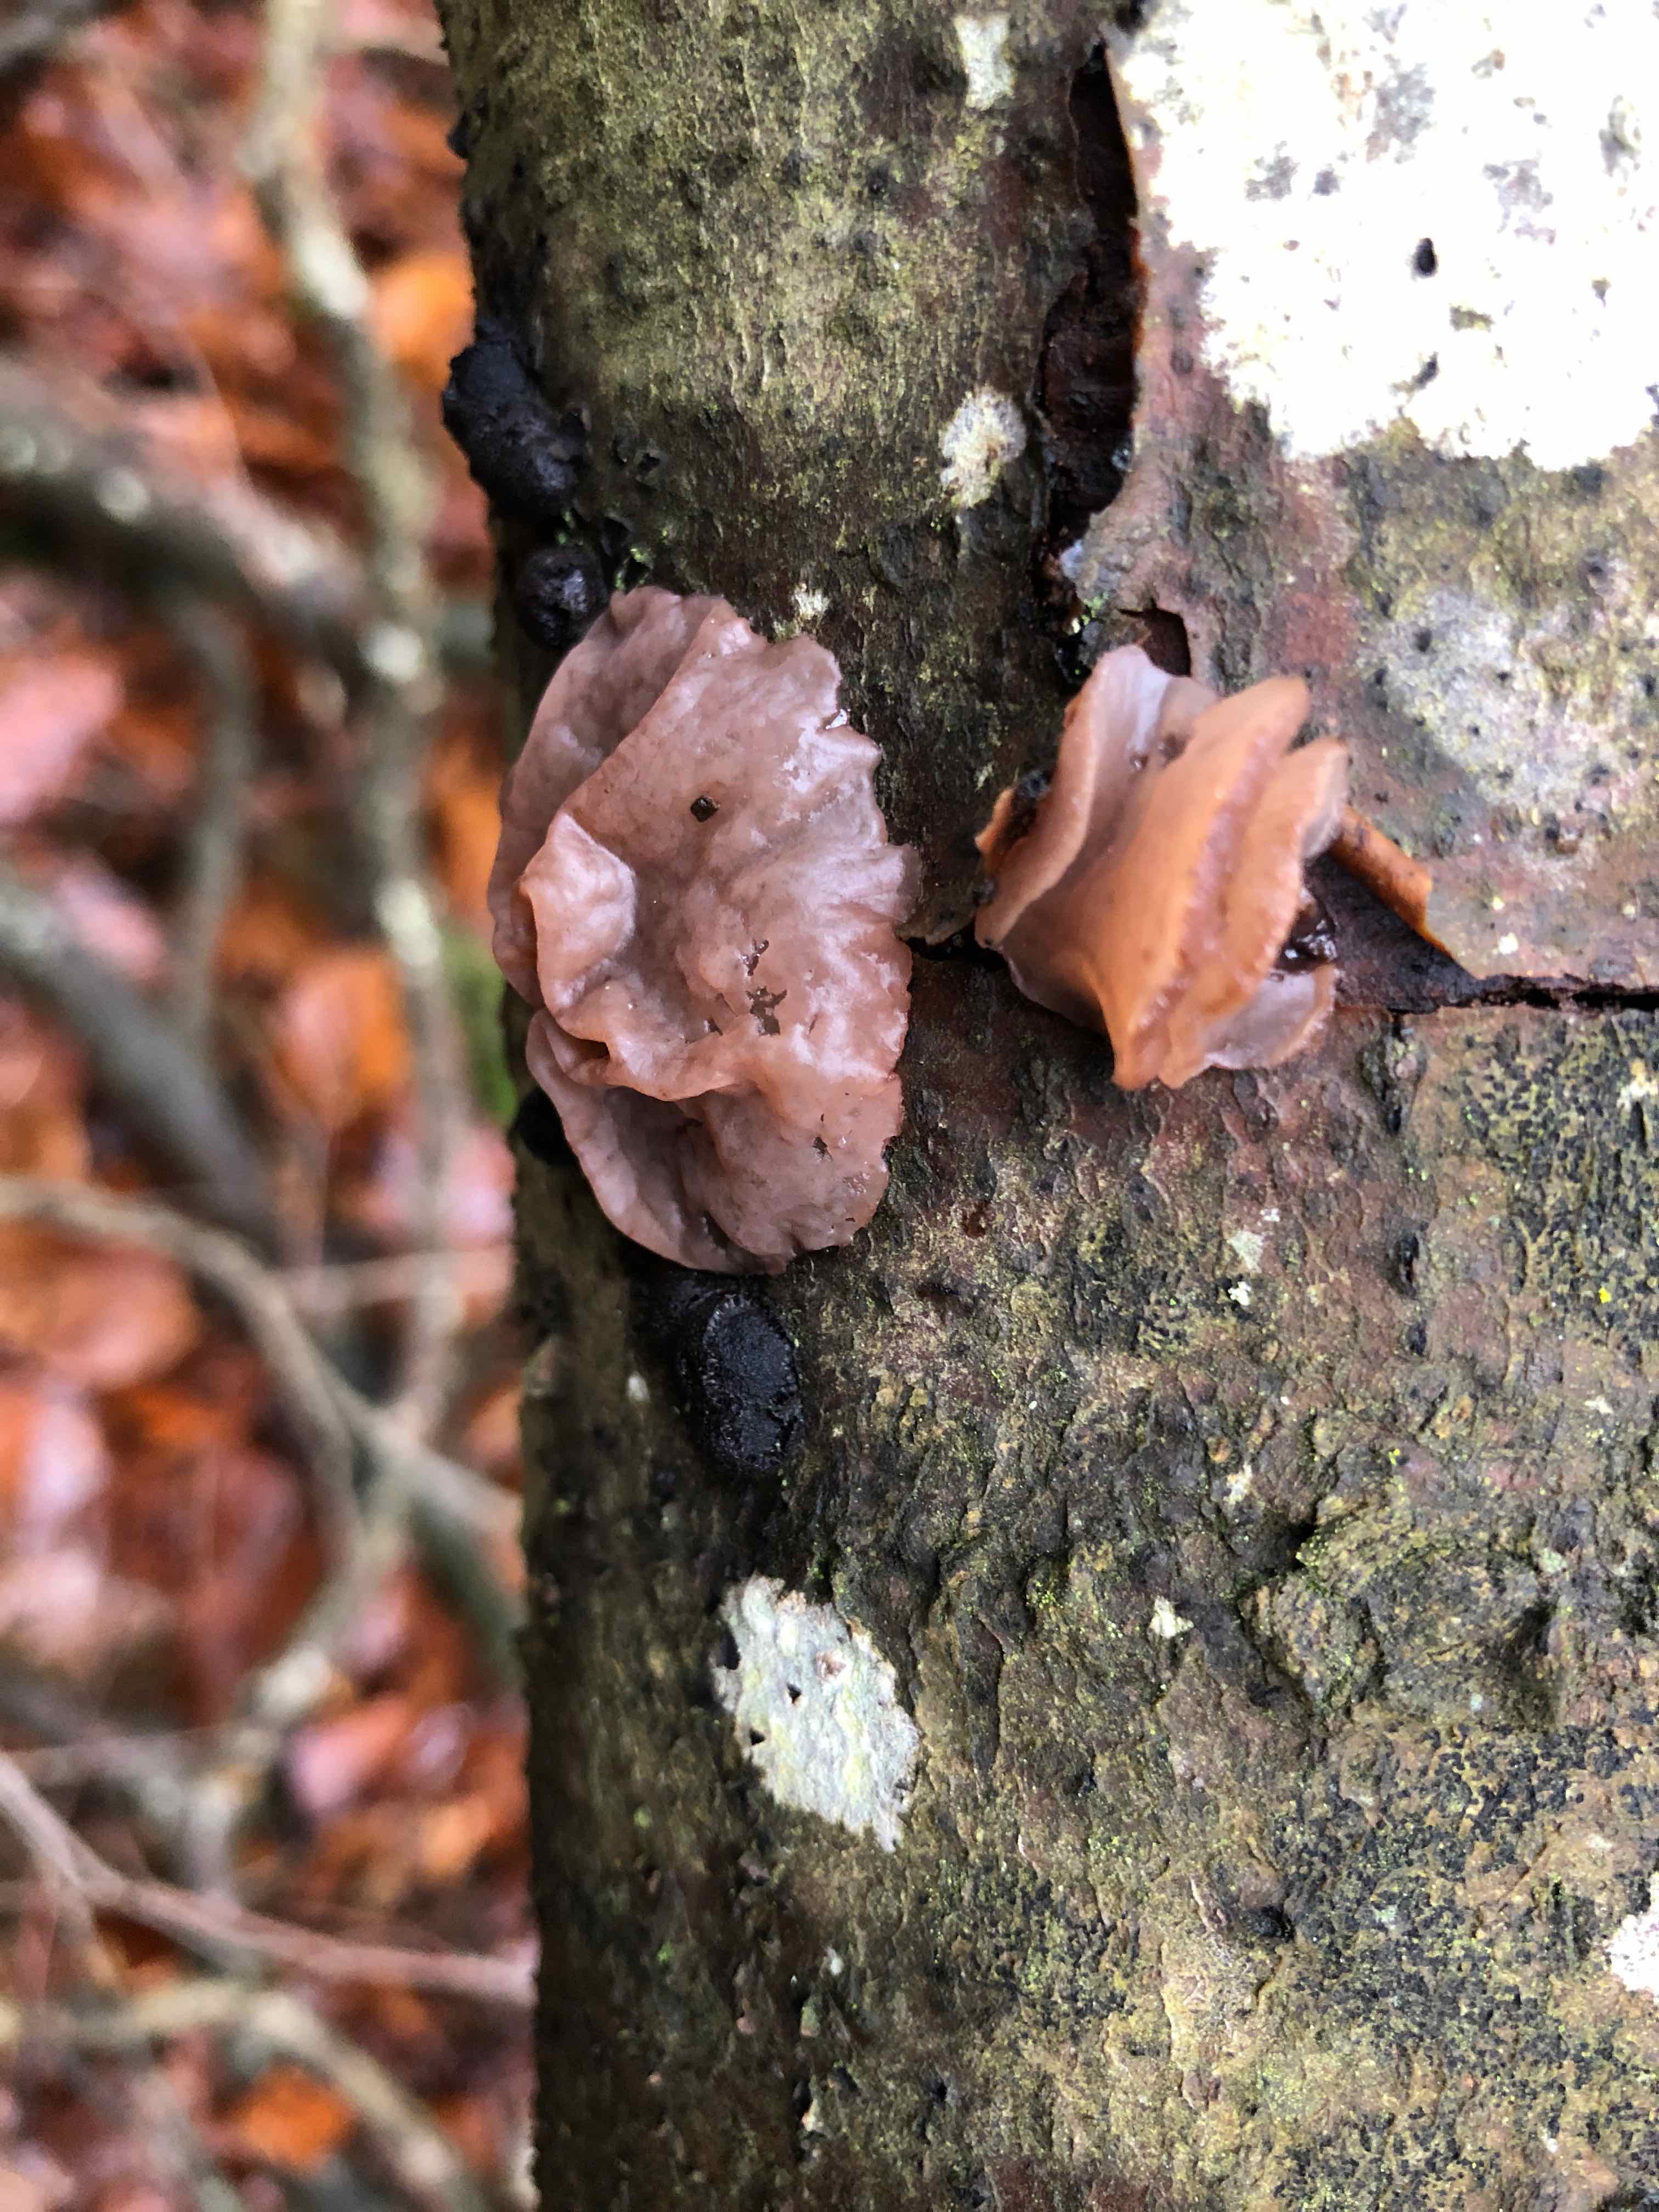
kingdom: Fungi
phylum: Ascomycota
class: Leotiomycetes
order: Helotiales
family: Gelatinodiscaceae
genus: Neobulgaria
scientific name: Neobulgaria pura
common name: bleg bævreskive
